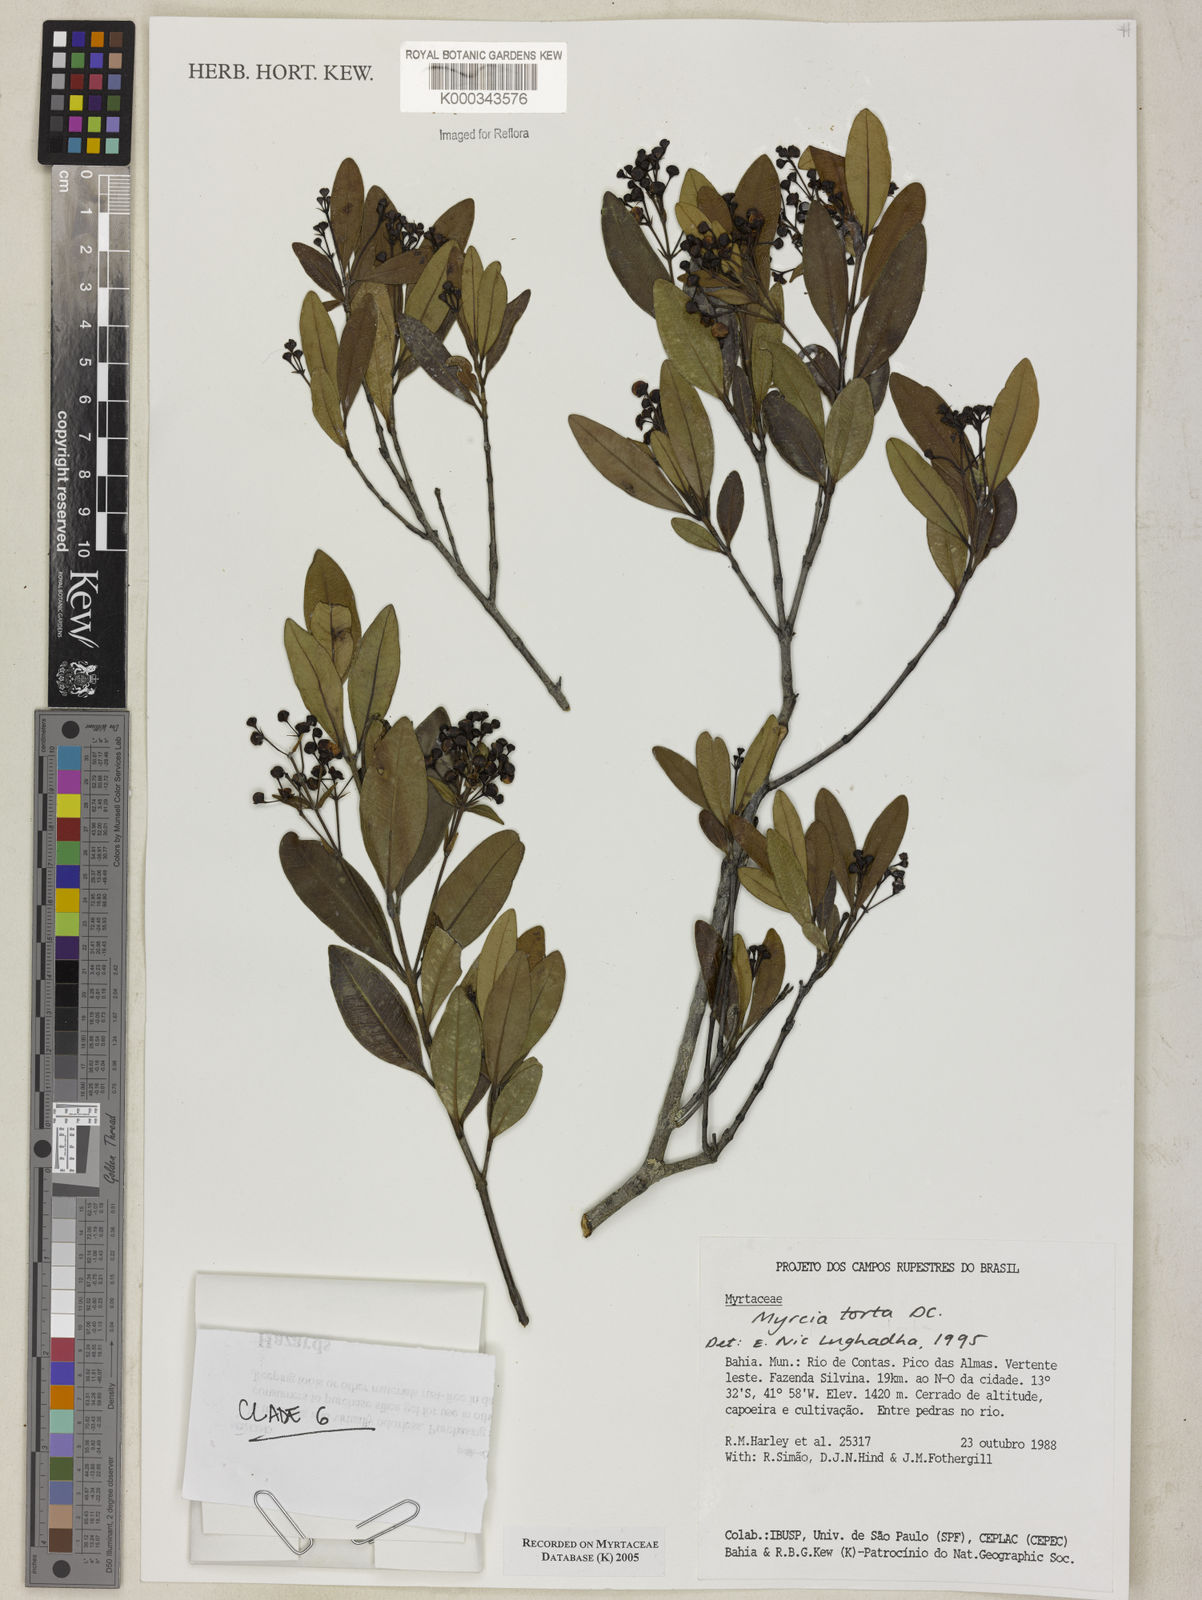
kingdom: Plantae
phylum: Tracheophyta
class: Magnoliopsida
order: Myrtales
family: Myrtaceae
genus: Myrcia
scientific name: Myrcia guianensis
